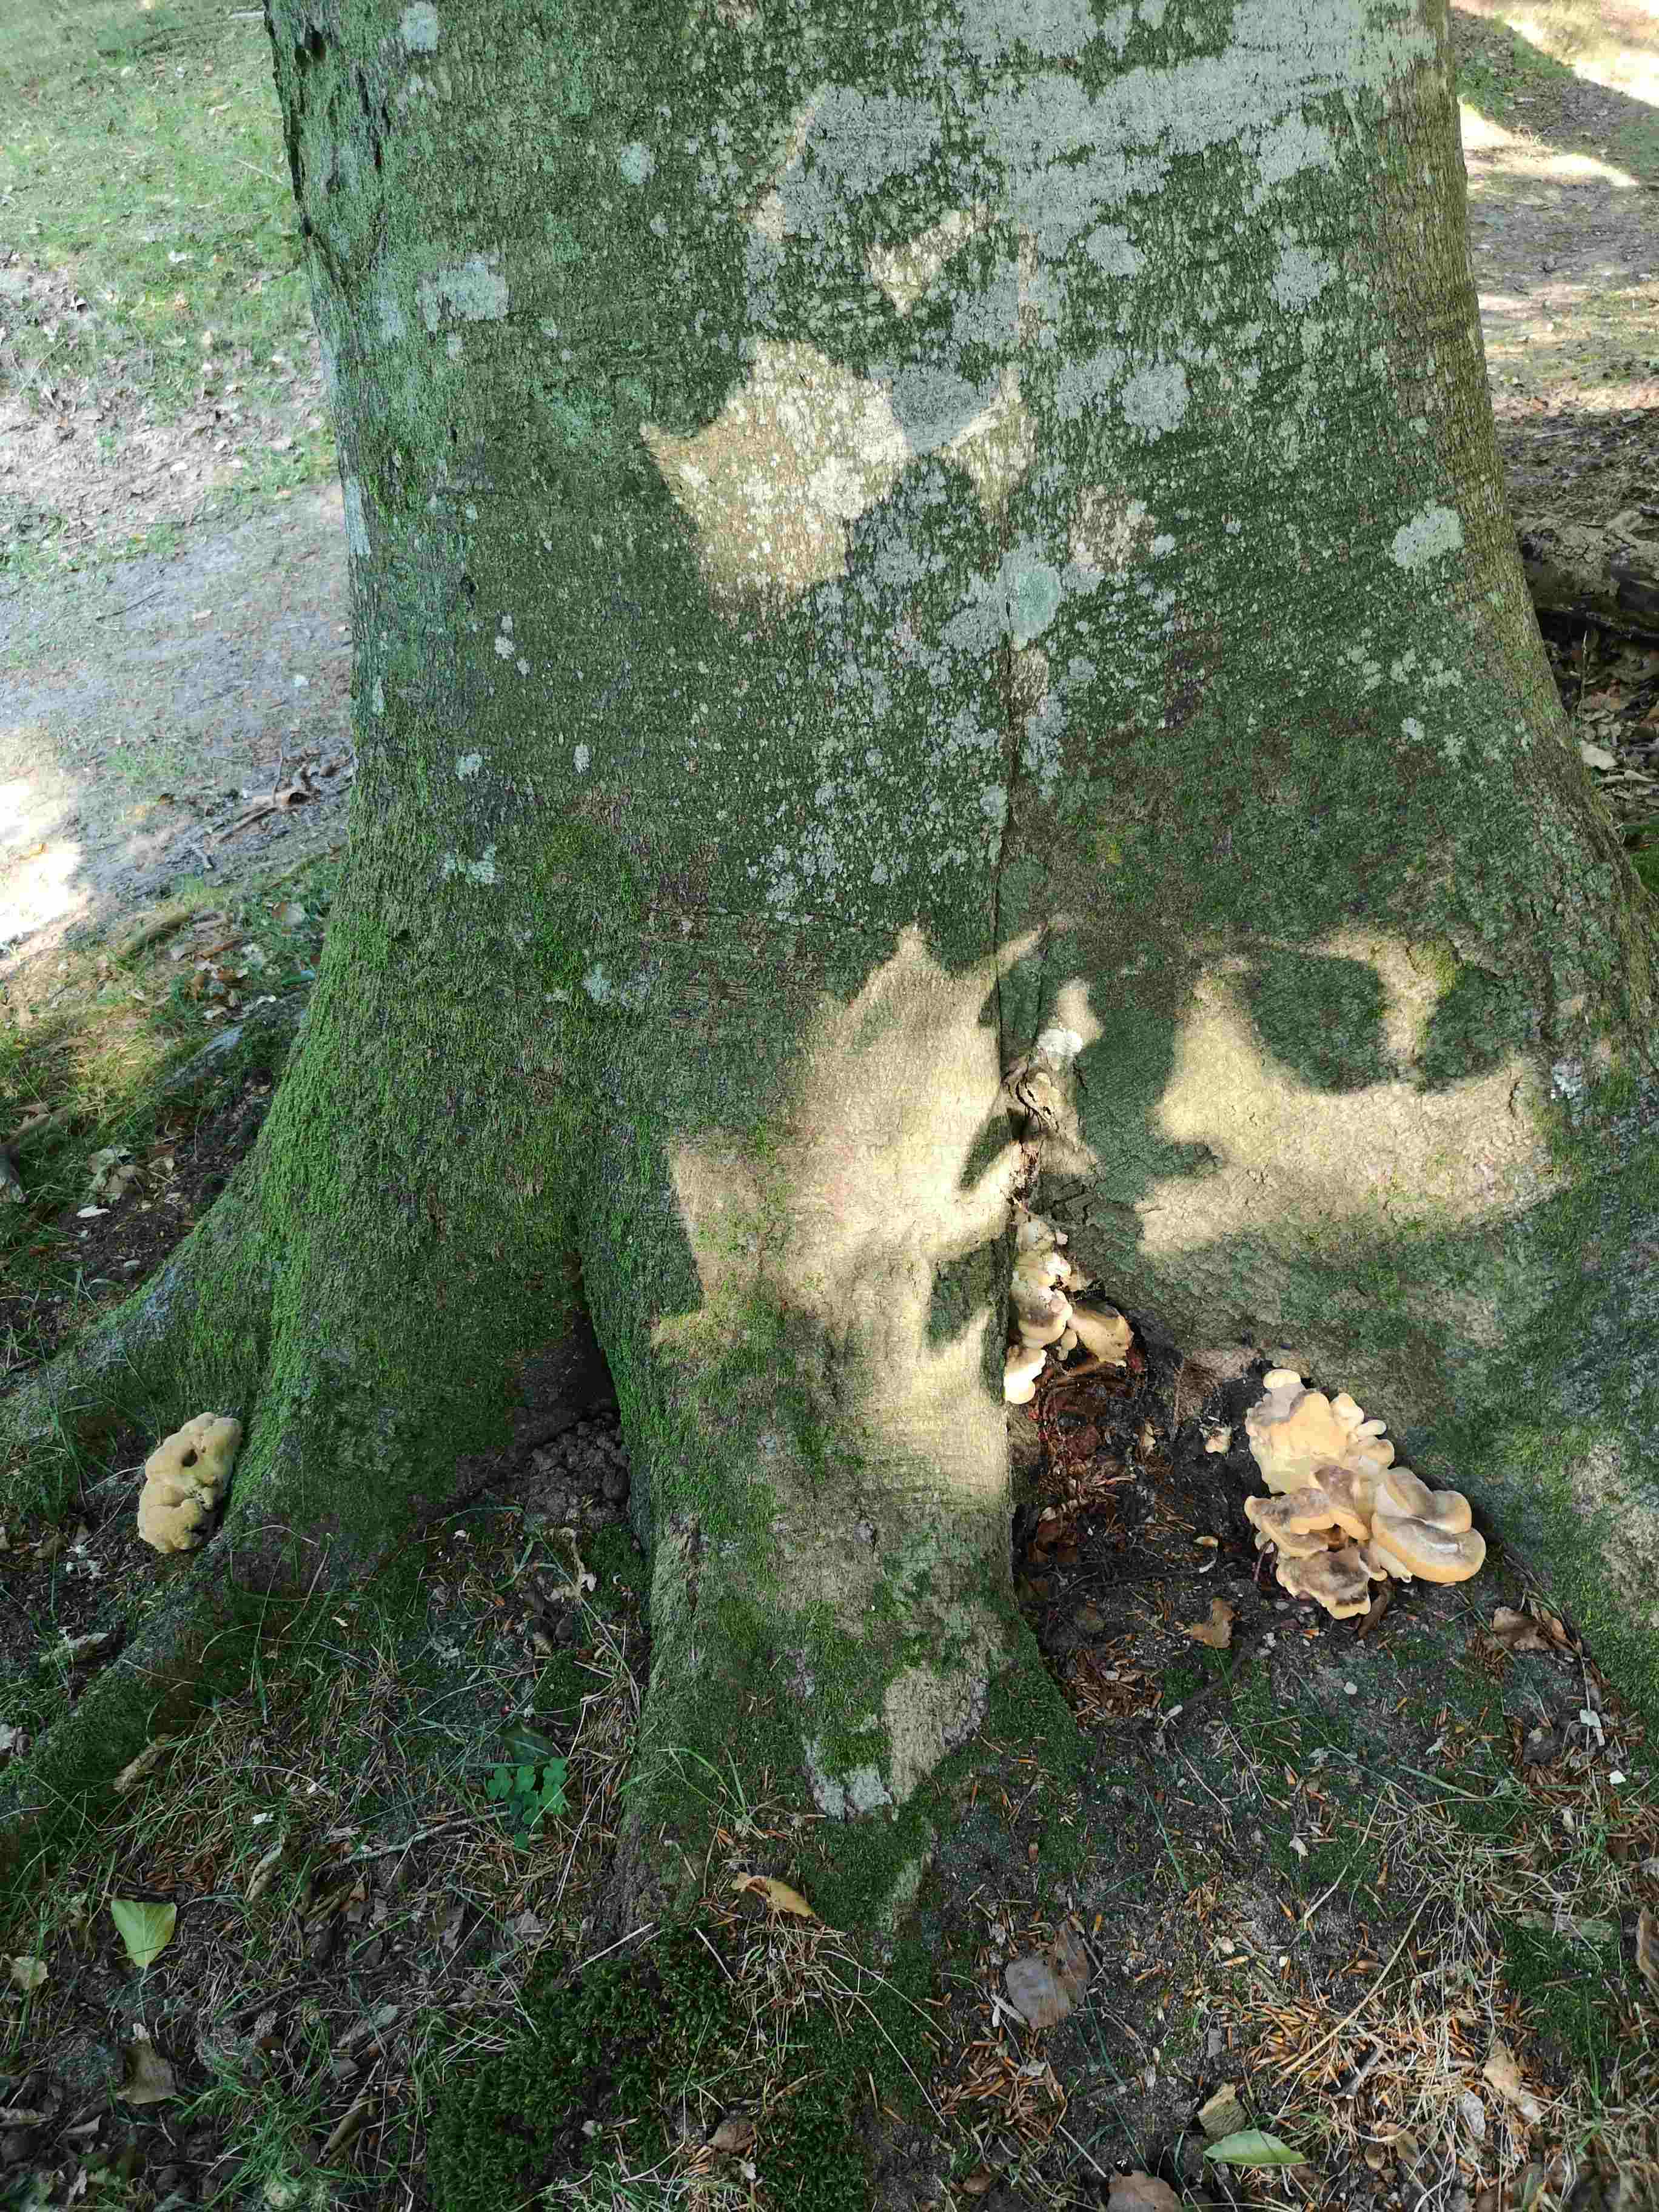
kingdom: Fungi
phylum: Basidiomycota
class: Agaricomycetes
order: Polyporales
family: Meripilaceae
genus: Meripilus
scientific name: Meripilus giganteus
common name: kæmpeporesvamp
